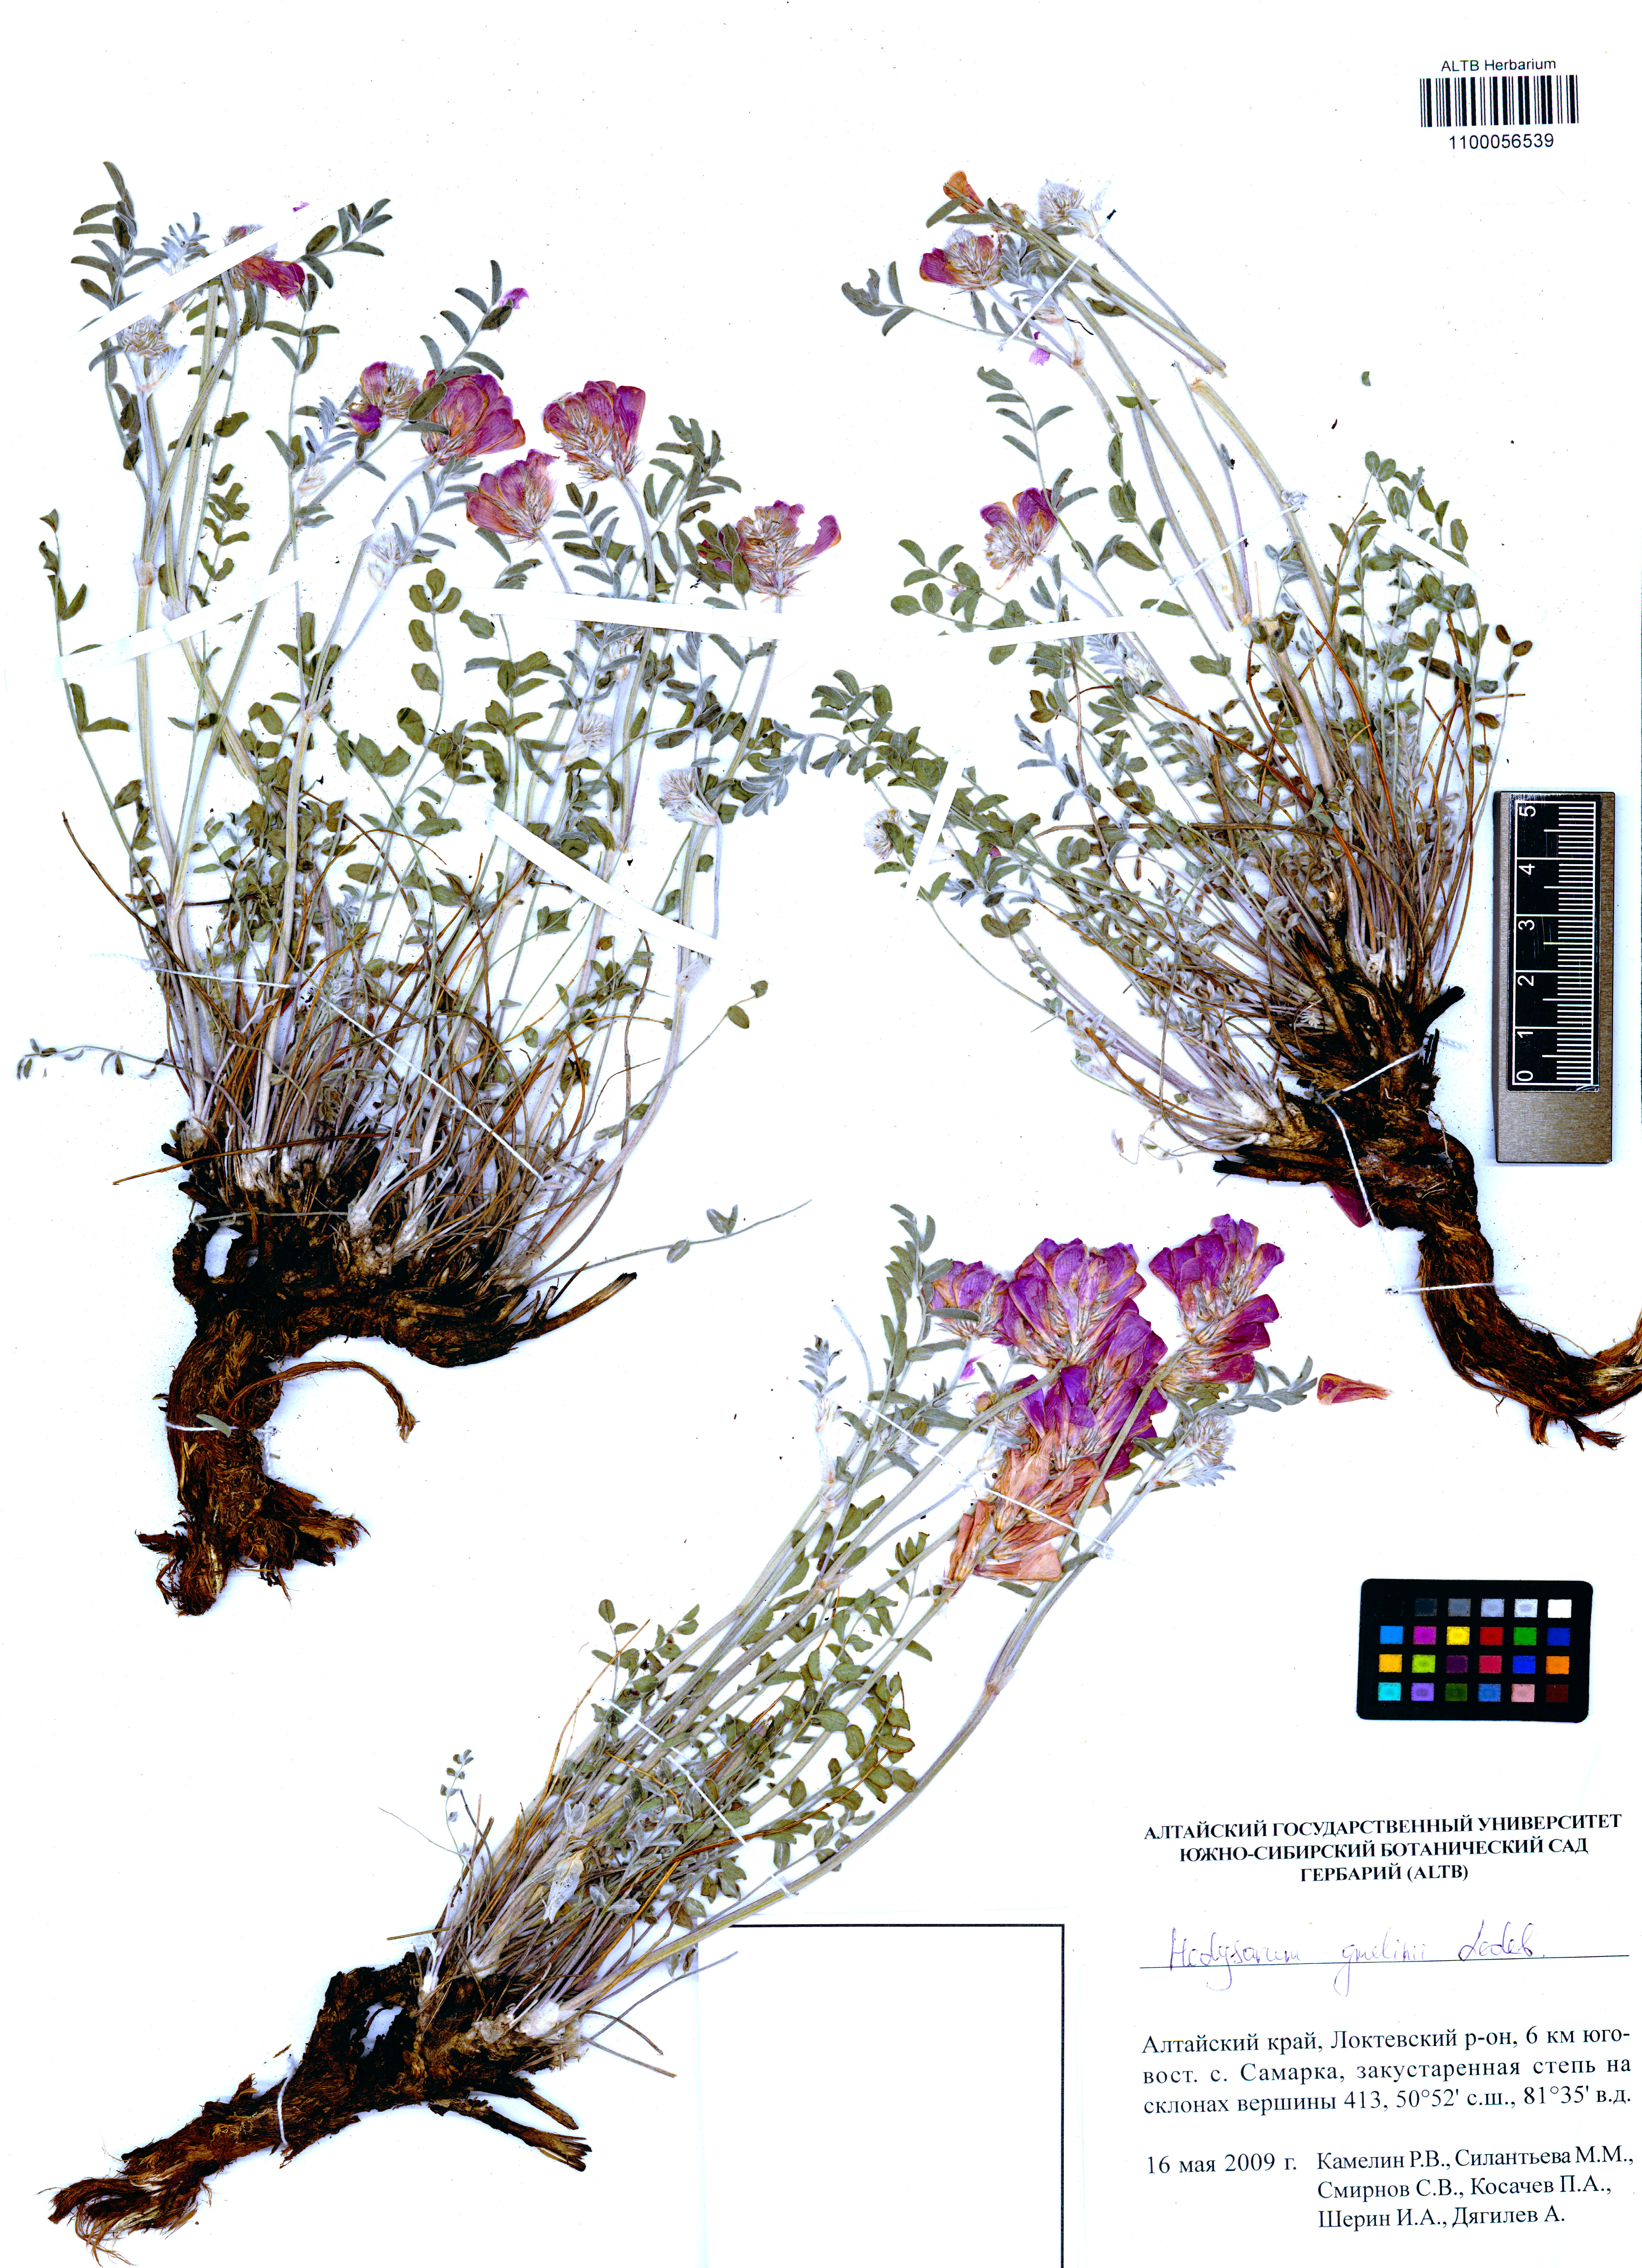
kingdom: Plantae
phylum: Tracheophyta
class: Magnoliopsida
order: Fabales
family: Fabaceae
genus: Hedysarum
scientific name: Hedysarum gmelinii
